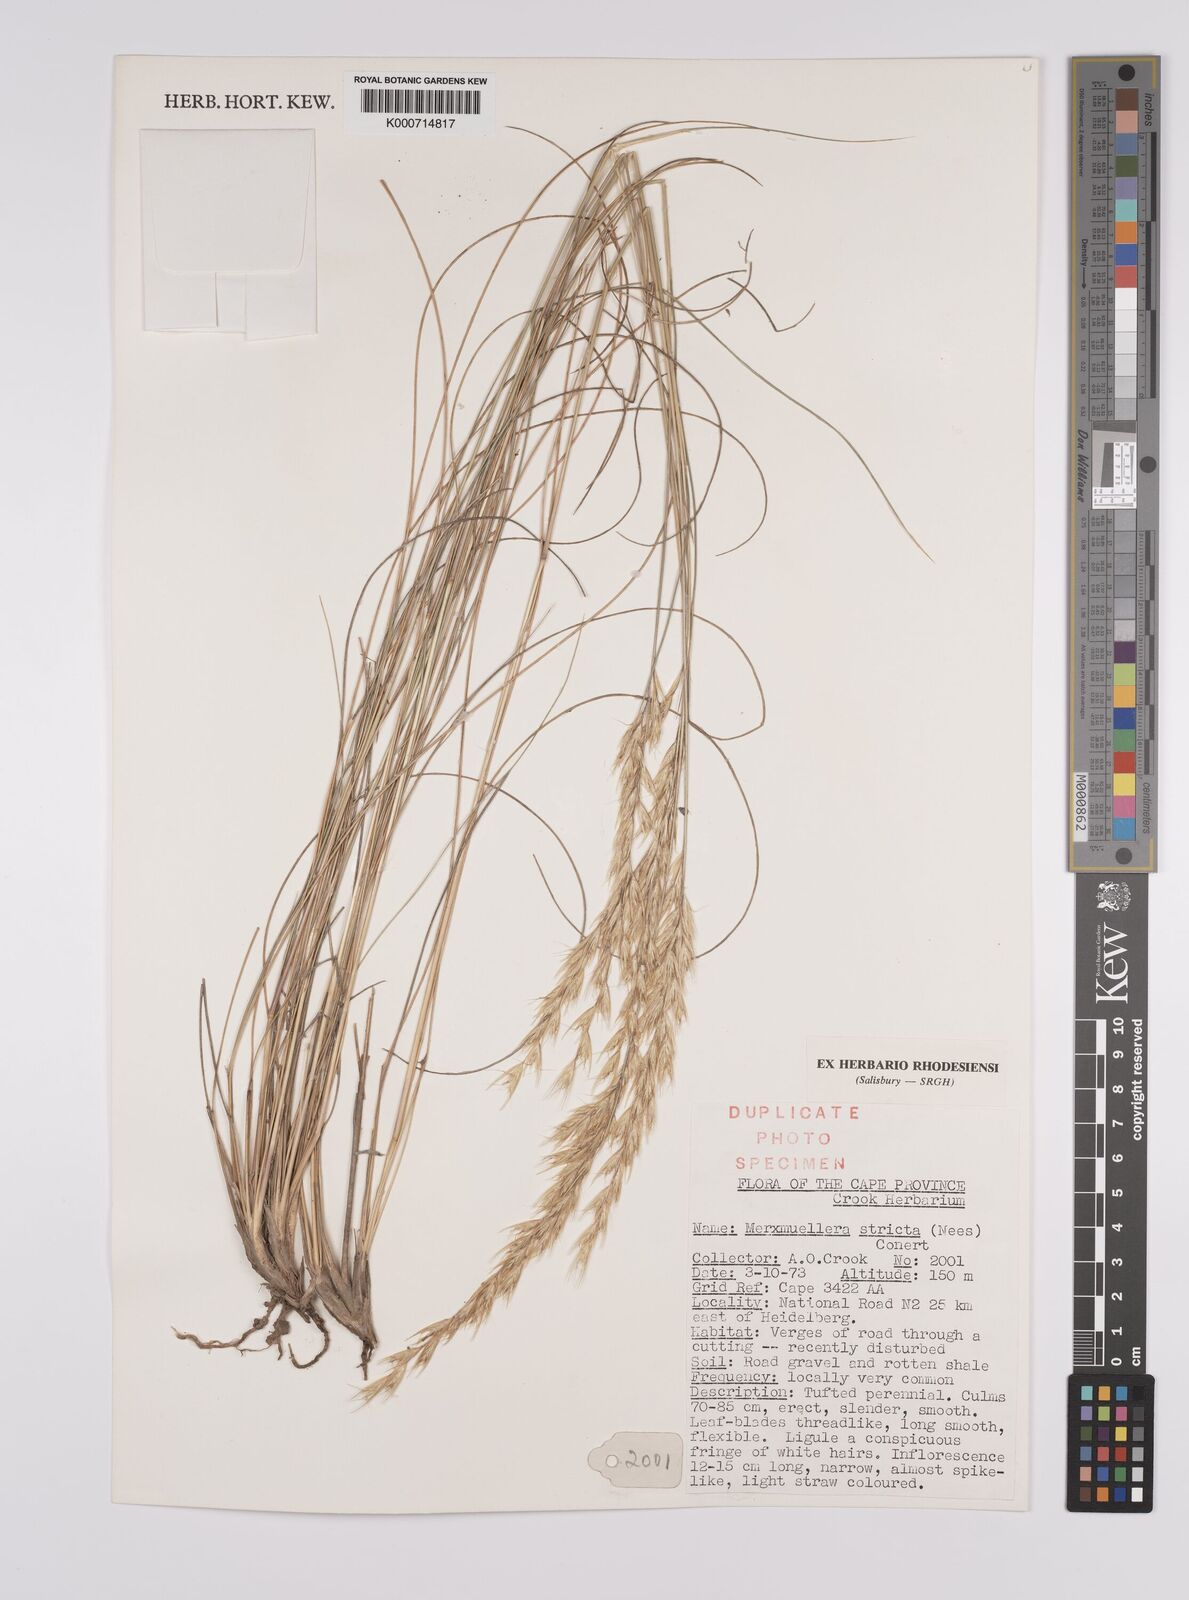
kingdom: Plantae
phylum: Tracheophyta
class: Liliopsida
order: Poales
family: Poaceae
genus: Rytidosperma
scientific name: Rytidosperma
